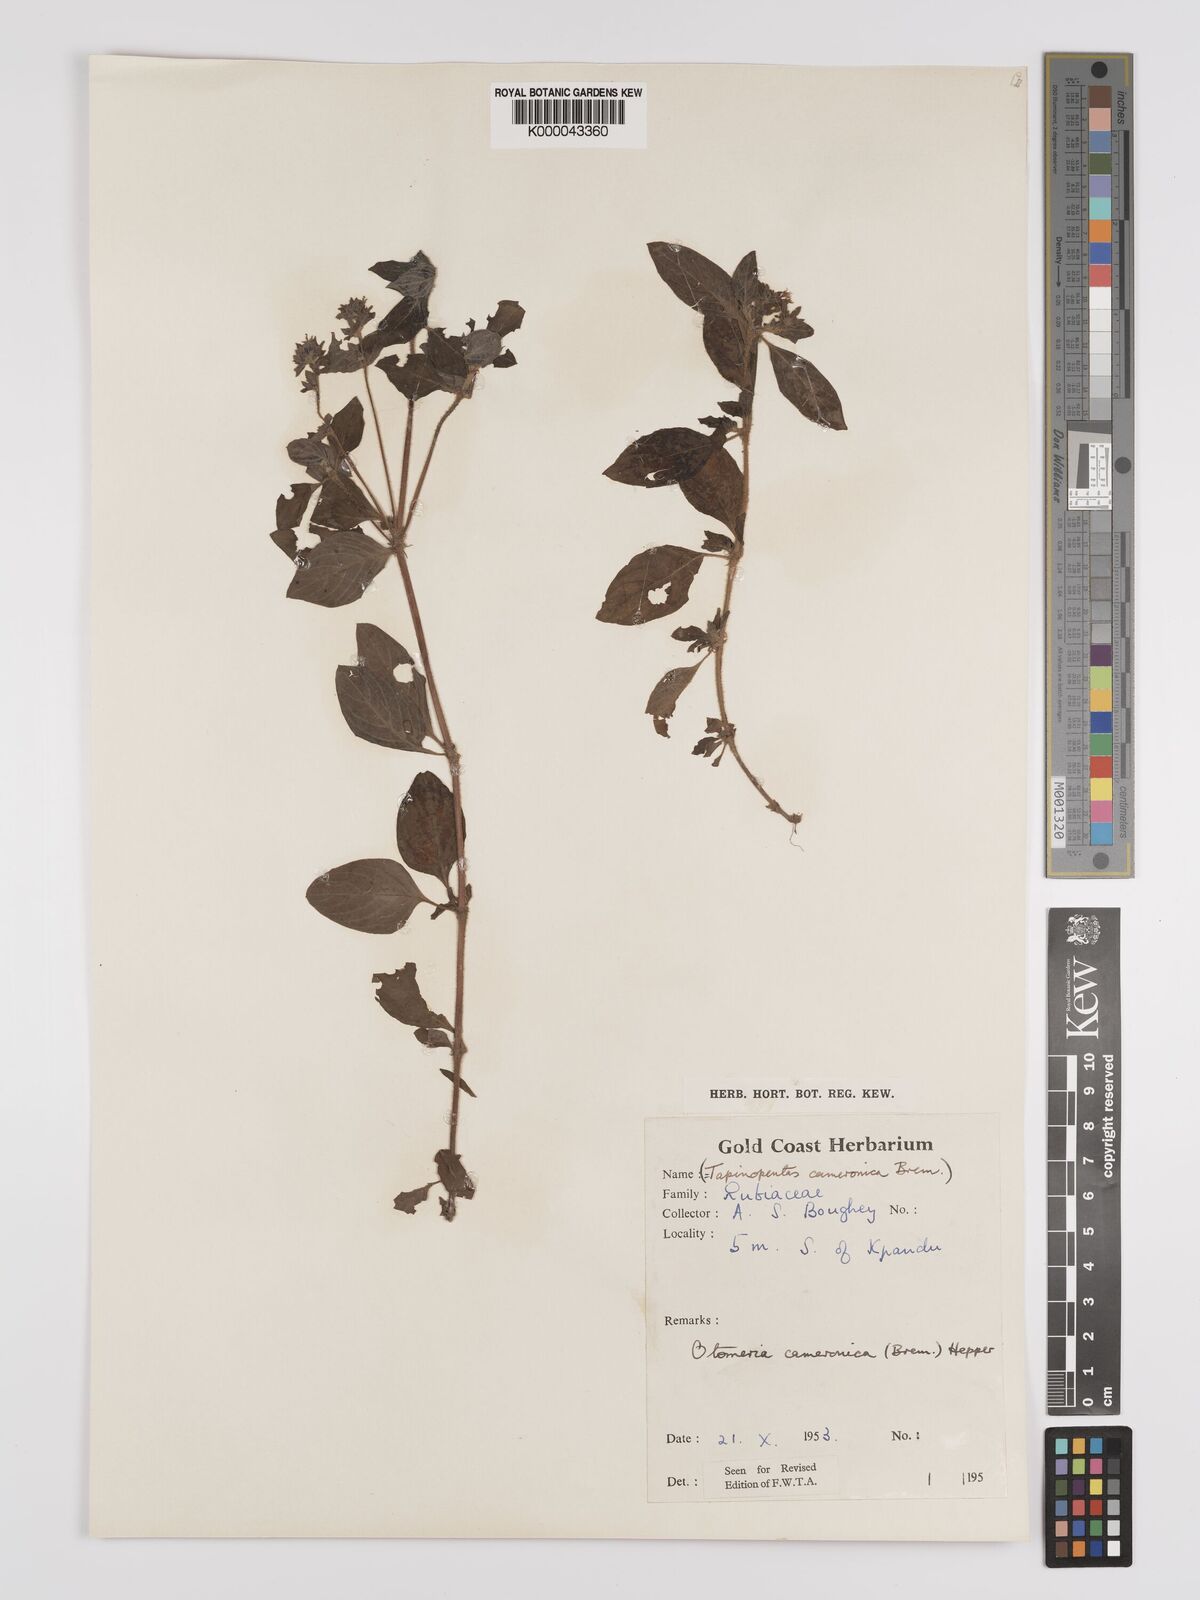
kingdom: Plantae
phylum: Tracheophyta
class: Magnoliopsida
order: Gentianales
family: Rubiaceae
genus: Otomeria
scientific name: Otomeria cameronica
